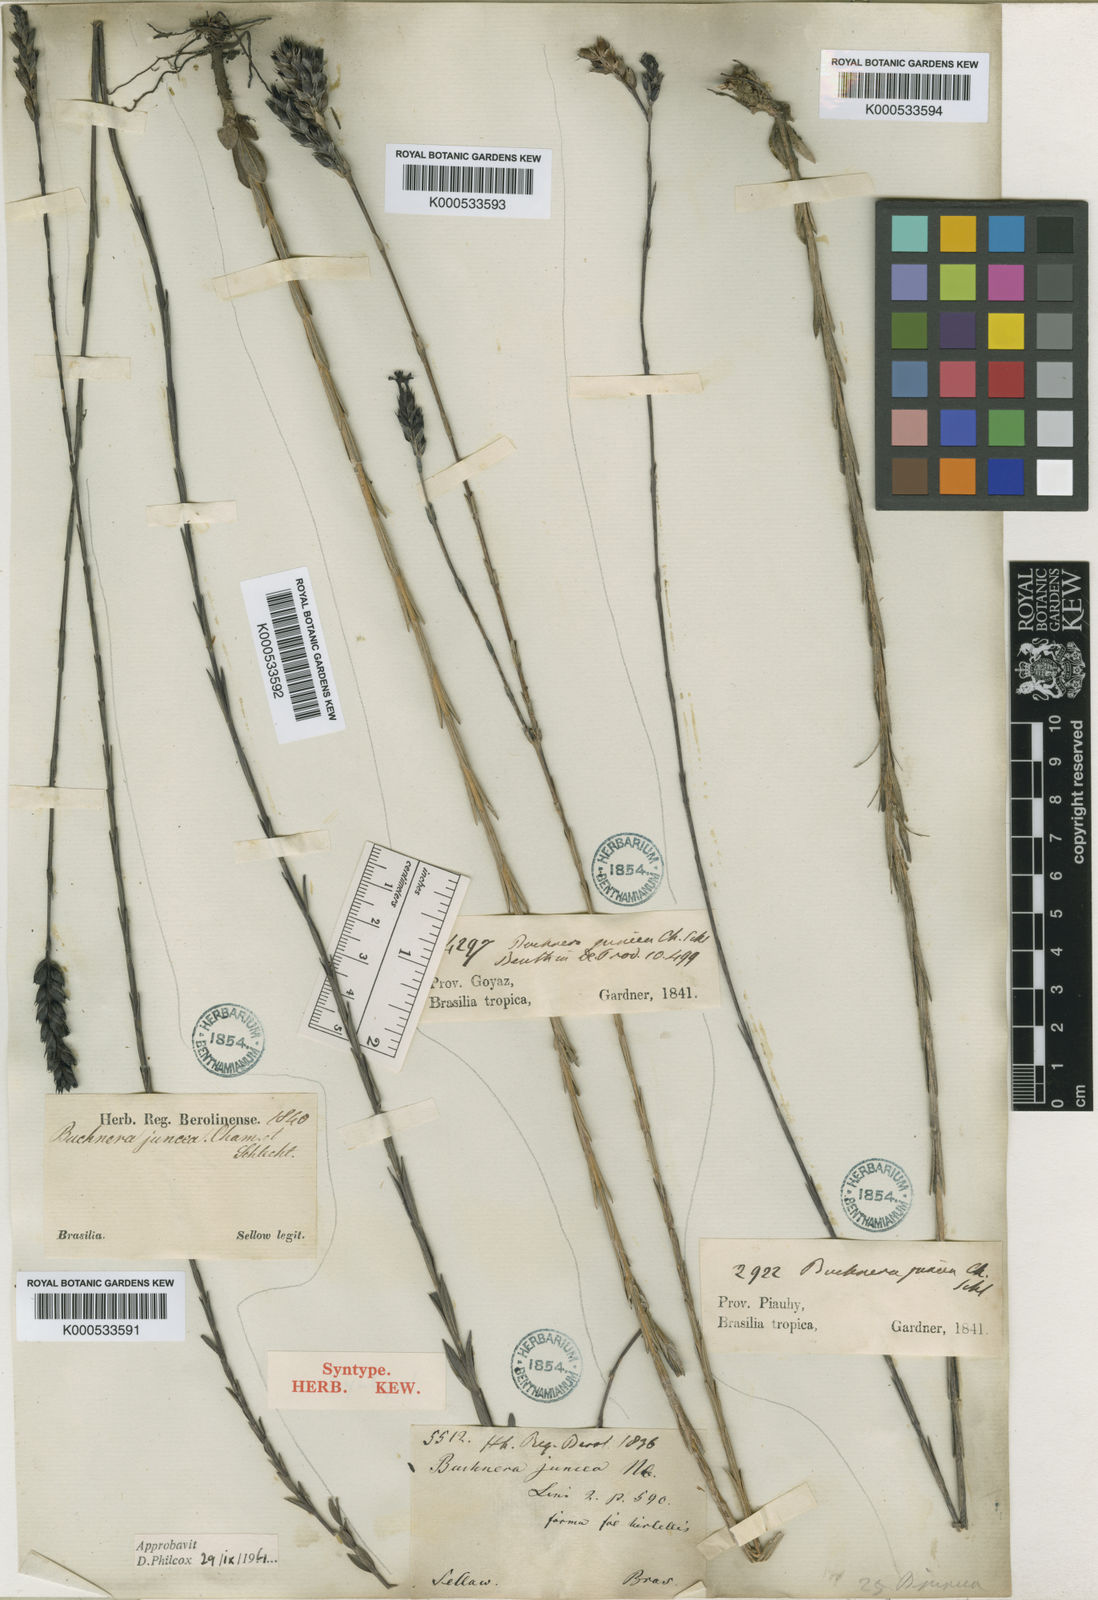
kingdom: Plantae
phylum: Tracheophyta
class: Magnoliopsida
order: Lamiales
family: Orobanchaceae
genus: Buchnera
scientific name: Buchnera juncea
